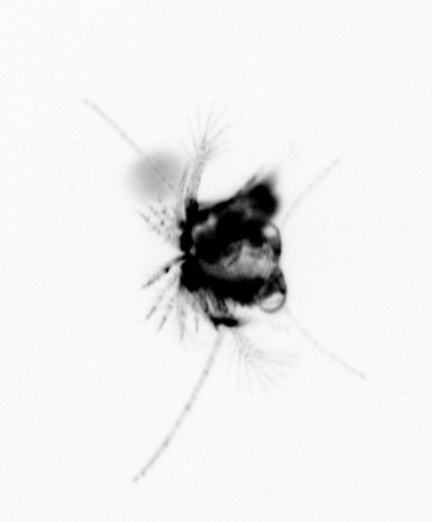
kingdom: Animalia
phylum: Arthropoda
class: Malacostraca
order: Decapoda
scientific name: Decapoda
